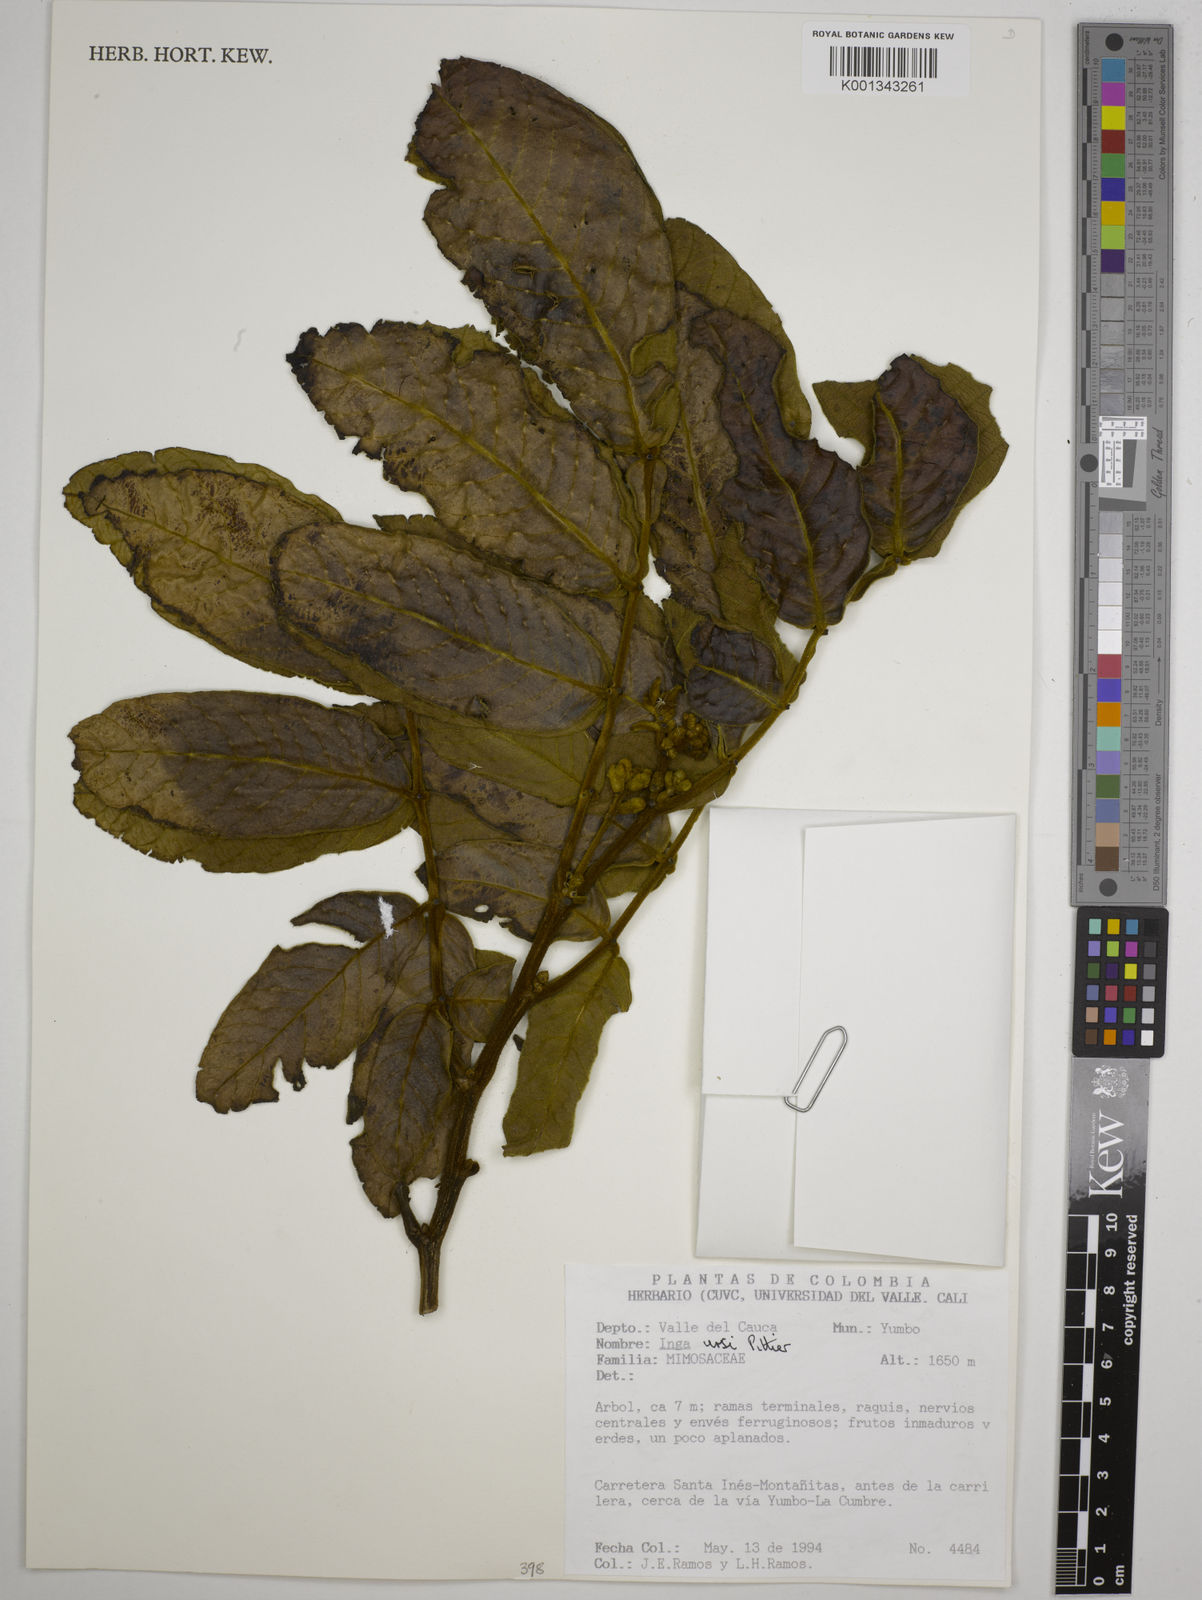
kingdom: Plantae
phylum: Tracheophyta
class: Magnoliopsida
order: Fabales
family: Fabaceae
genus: Inga
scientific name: Inga ursi
